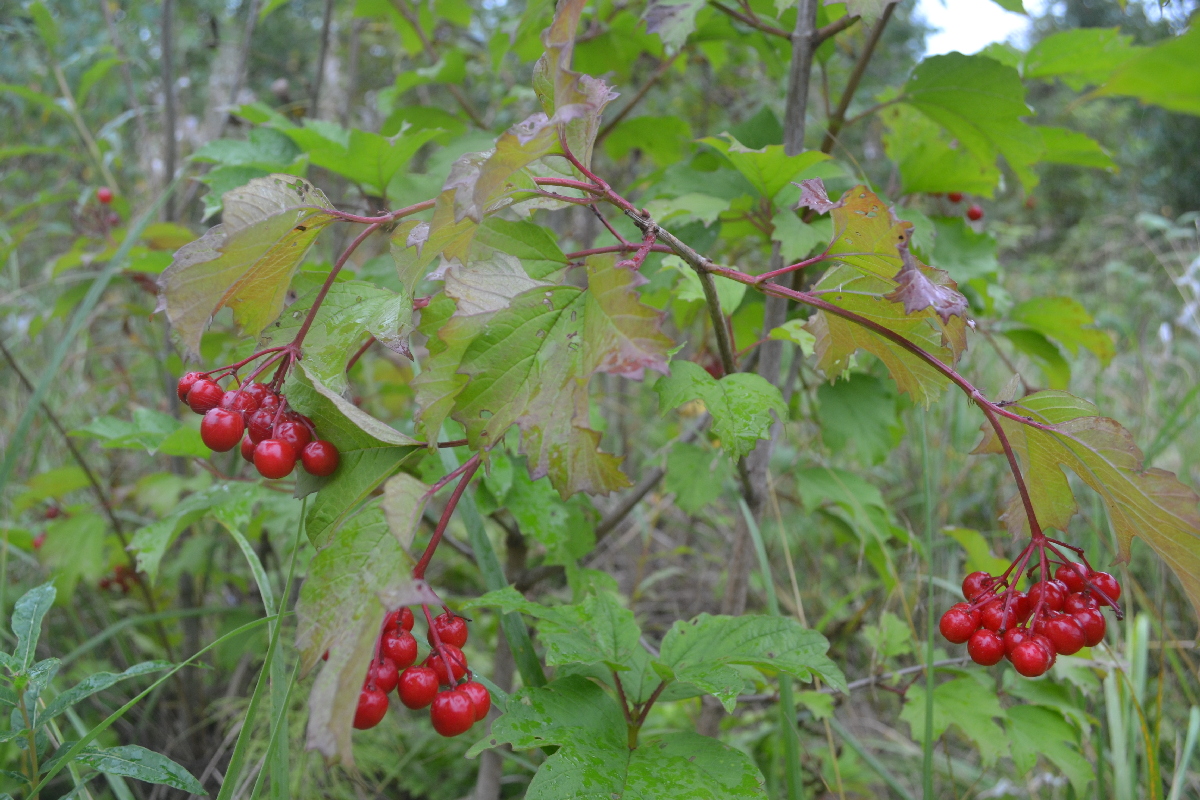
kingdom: Plantae
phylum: Tracheophyta
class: Magnoliopsida
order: Dipsacales
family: Viburnaceae
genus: Viburnum
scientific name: Viburnum opulus
